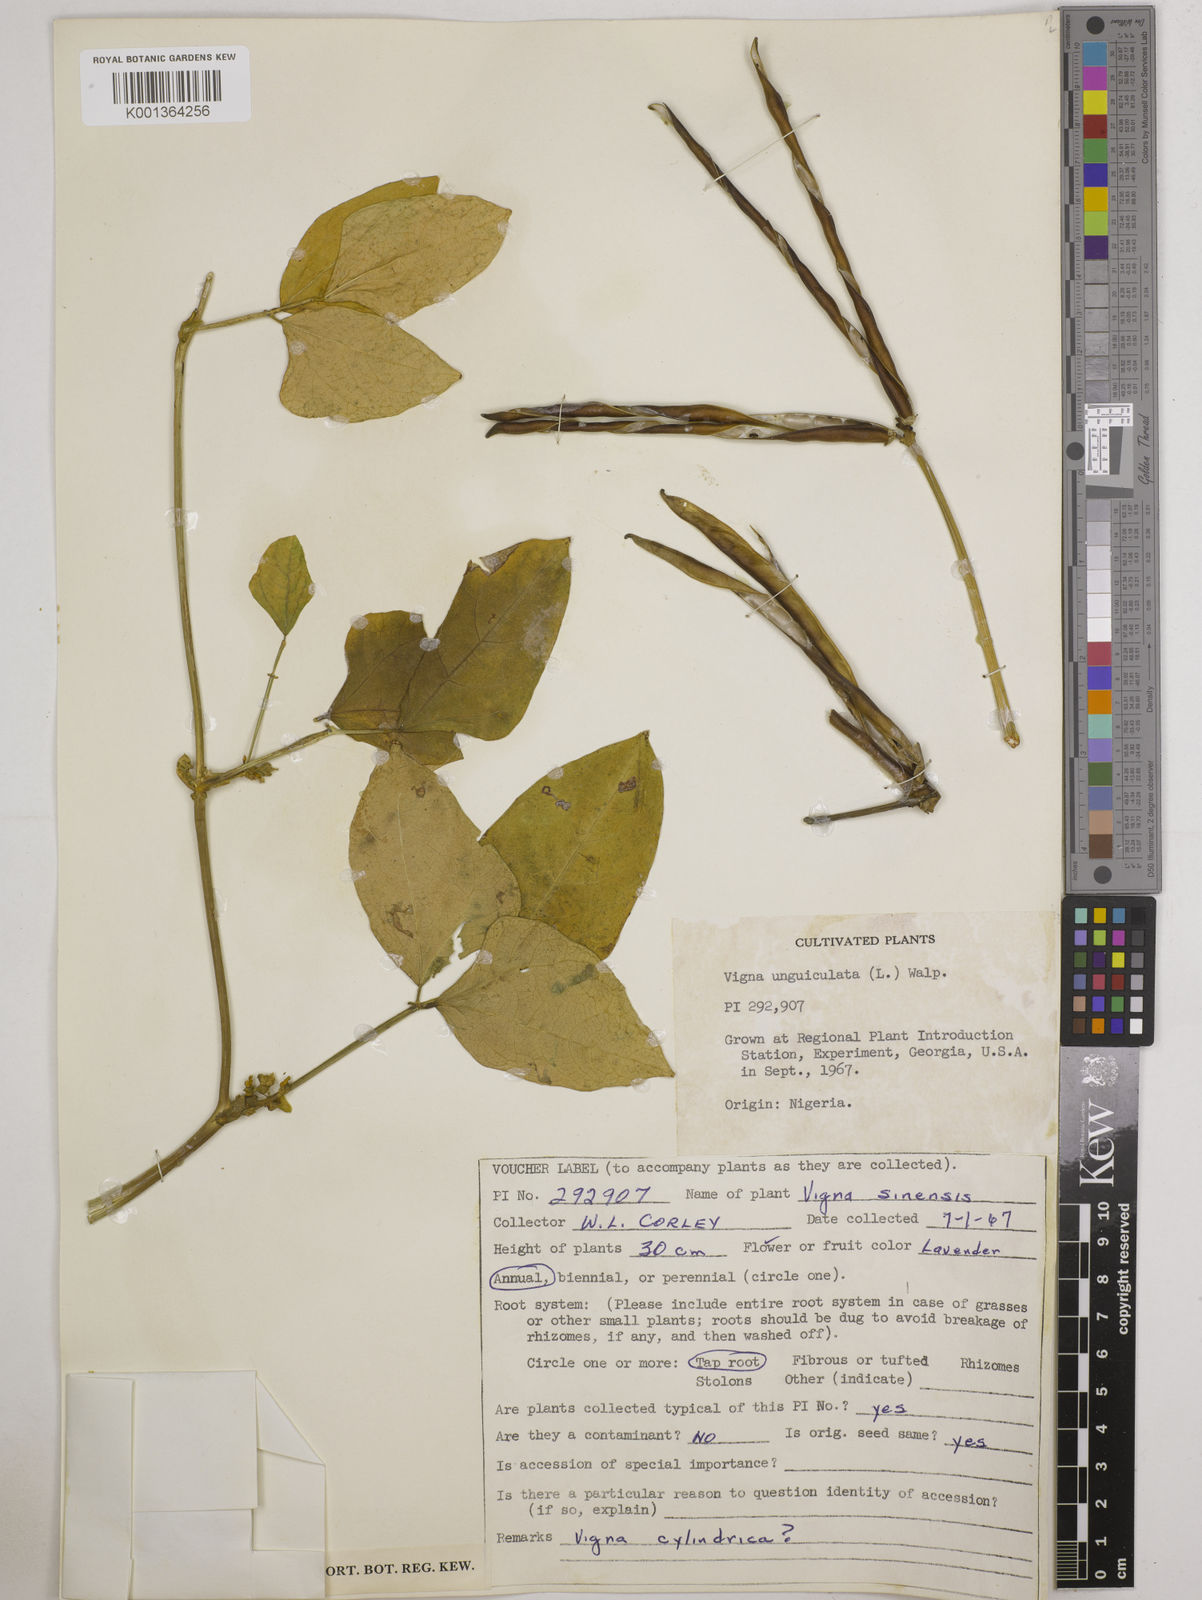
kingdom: Plantae
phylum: Tracheophyta
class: Magnoliopsida
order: Fabales
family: Fabaceae
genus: Vigna
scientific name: Vigna
